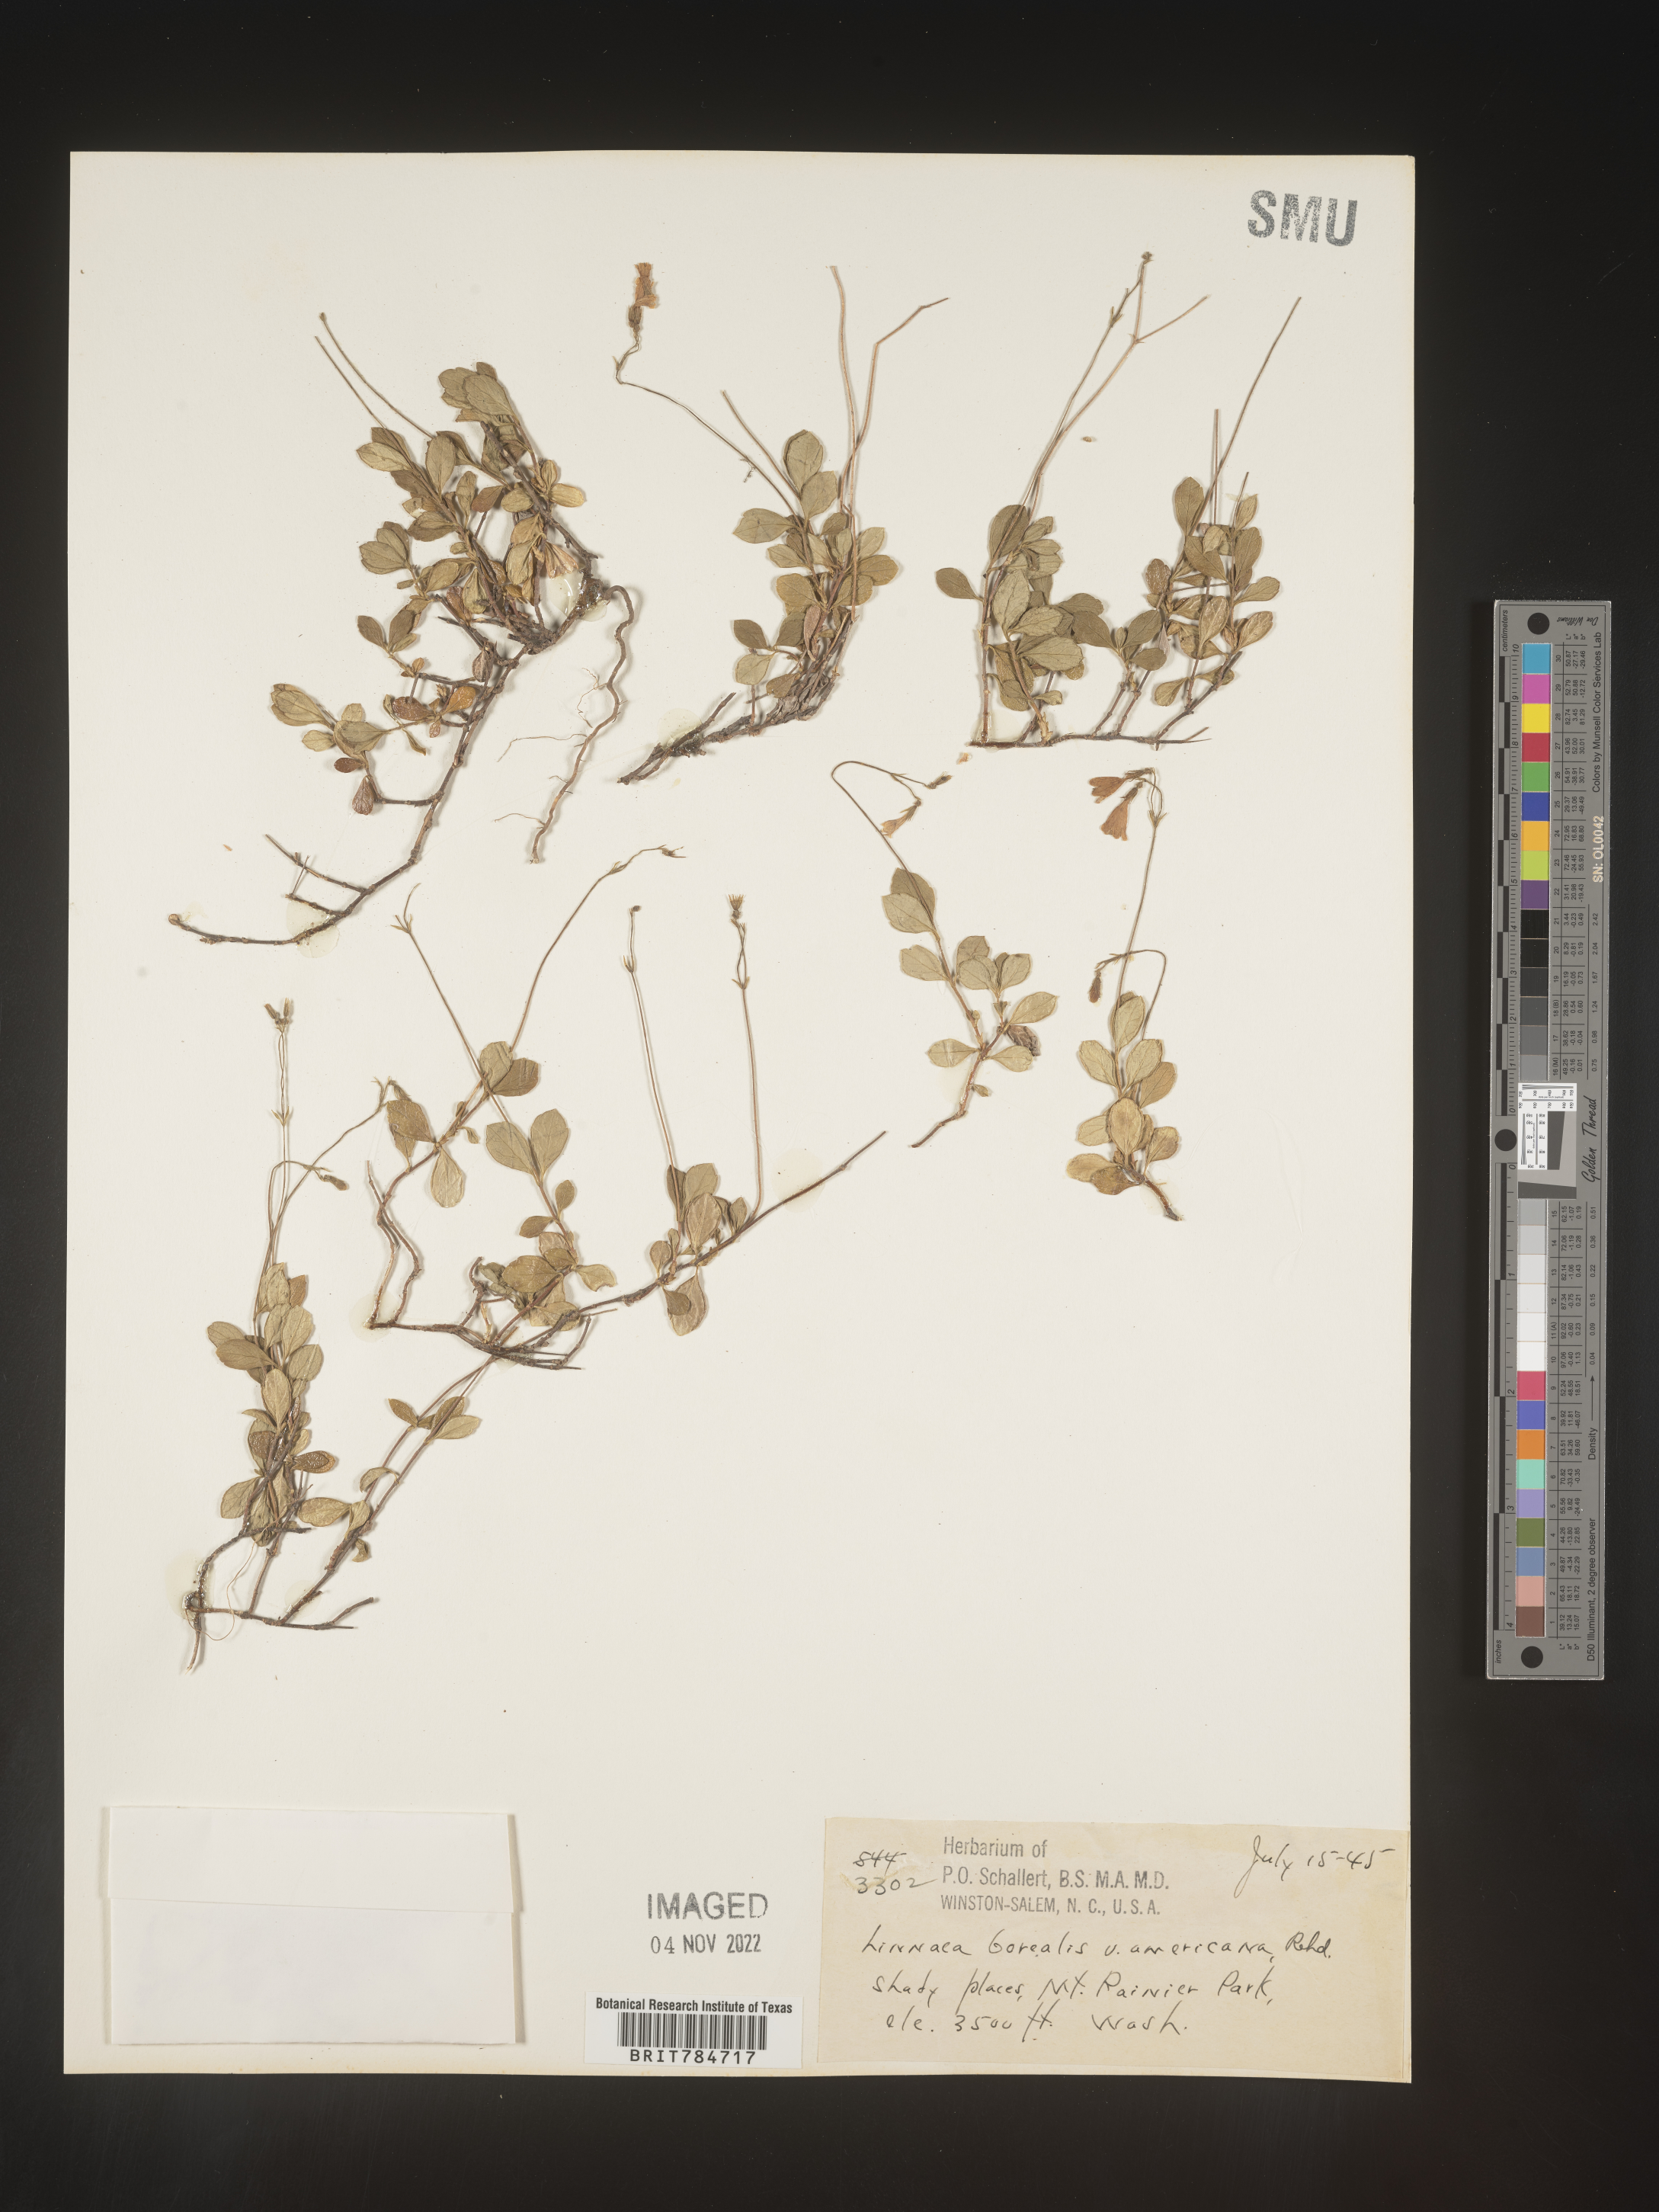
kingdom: Plantae
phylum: Tracheophyta
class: Magnoliopsida
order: Dipsacales
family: Caprifoliaceae
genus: Linnaea
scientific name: Linnaea borealis
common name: Twinflower
